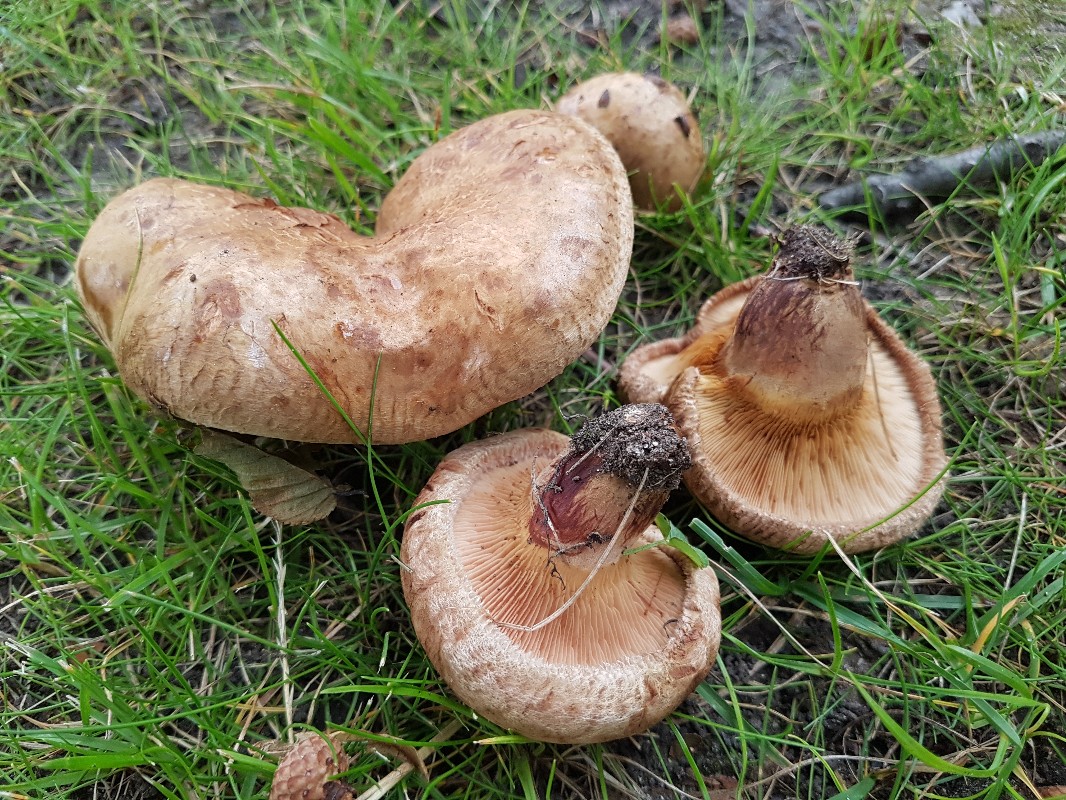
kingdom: Fungi
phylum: Basidiomycota
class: Agaricomycetes
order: Boletales
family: Paxillaceae
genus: Paxillus
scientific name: Paxillus obscurisporus
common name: mahognisporet netbladhat
